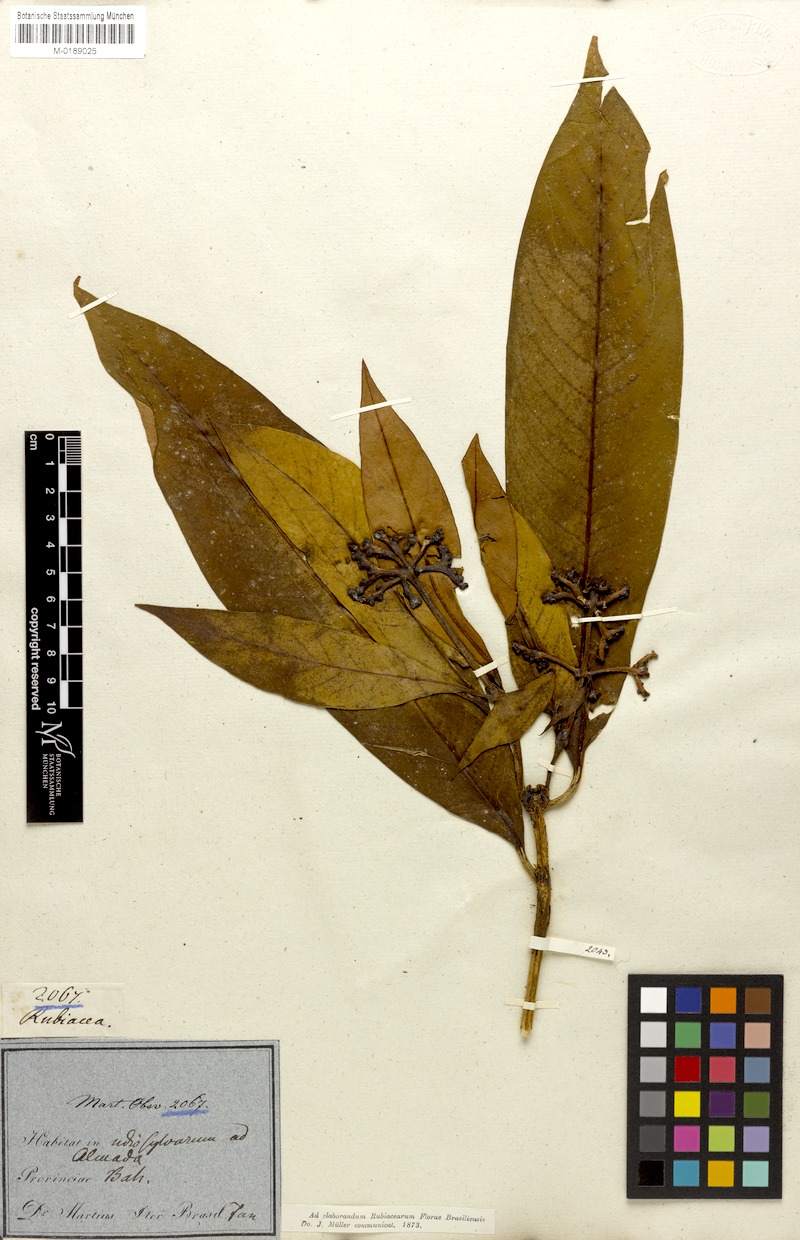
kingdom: Plantae
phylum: Tracheophyta
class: Magnoliopsida
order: Gentianales
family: Rubiaceae
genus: Palicourea
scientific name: Palicourea jambosioides
